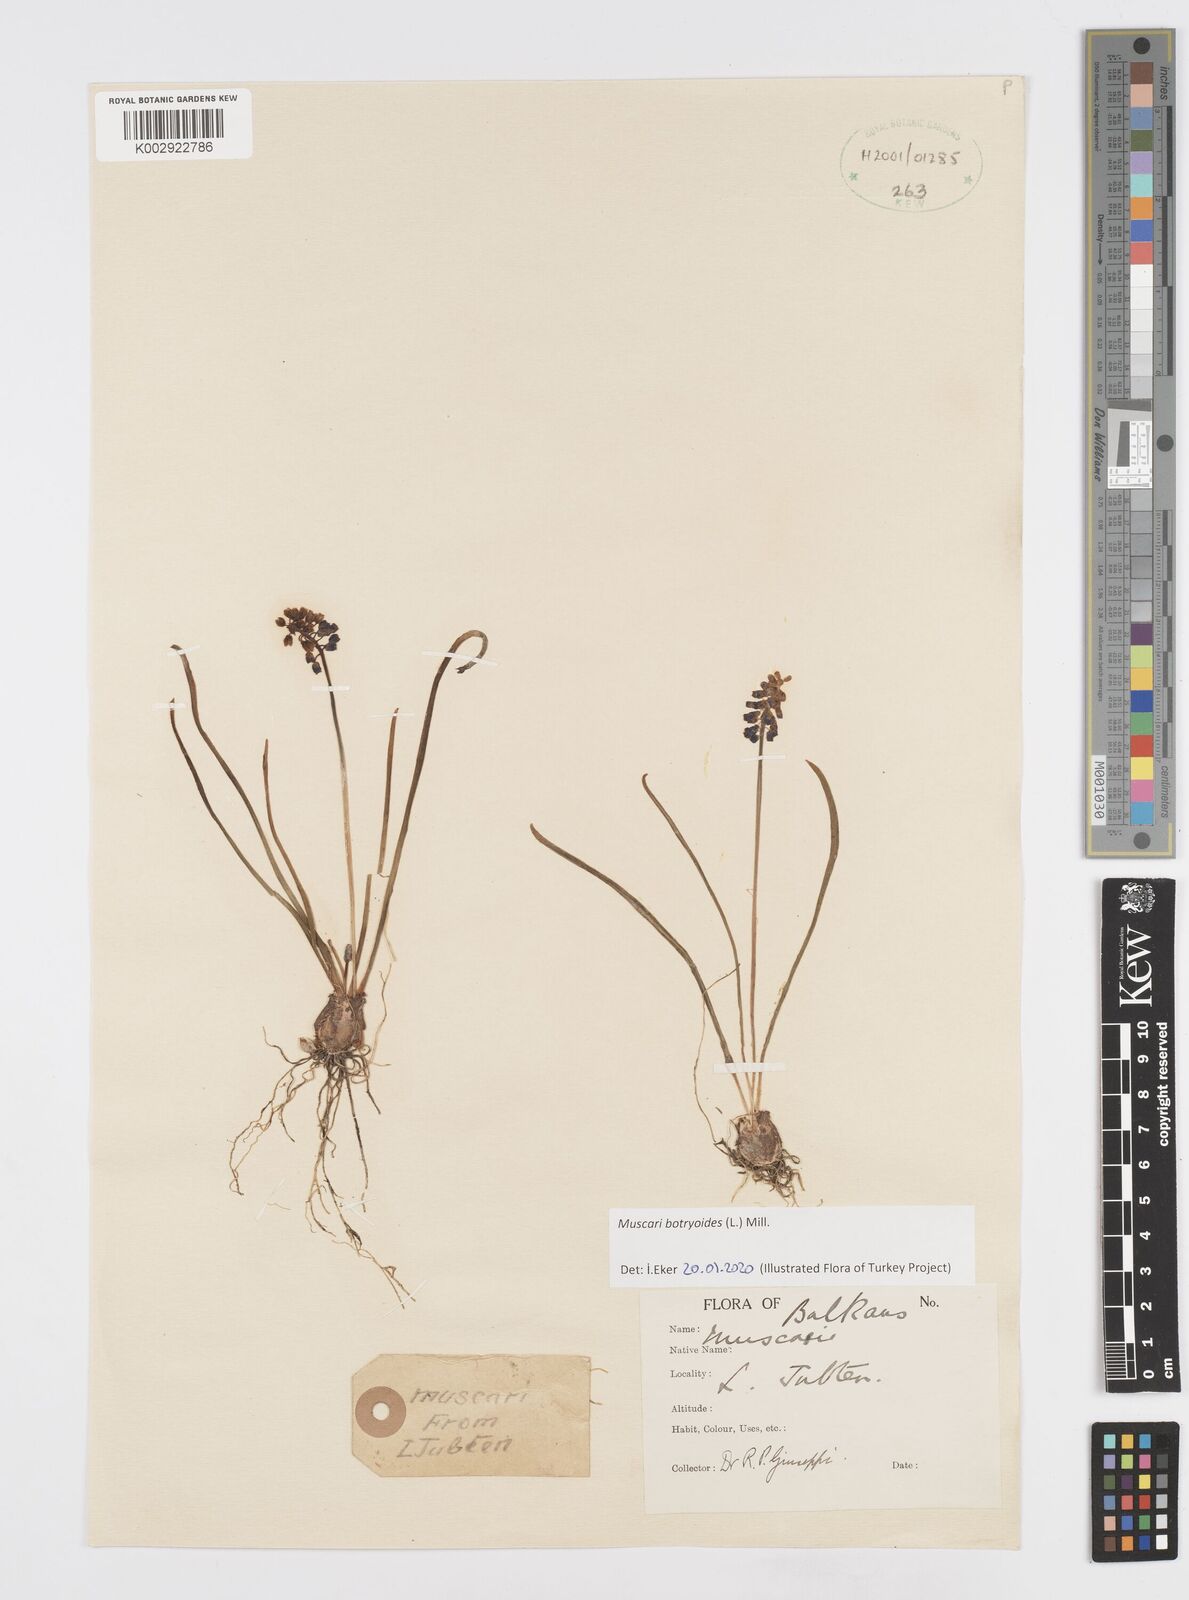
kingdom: Plantae
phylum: Tracheophyta
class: Liliopsida
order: Asparagales
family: Asparagaceae
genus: Muscari
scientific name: Muscari botryoides
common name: Compact grape-hyacinth
